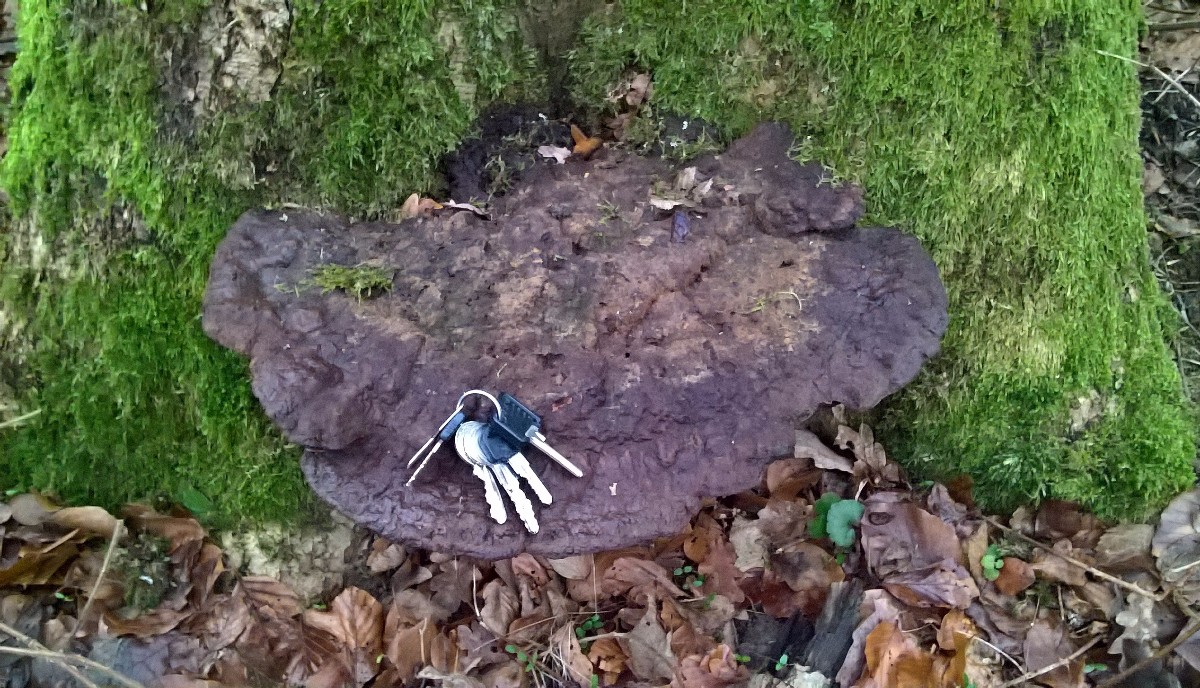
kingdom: Fungi
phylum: Basidiomycota
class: Agaricomycetes
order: Polyporales
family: Polyporaceae
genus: Ganoderma
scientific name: Ganoderma resinaceum
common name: gyldenbrun lakporesvamp
